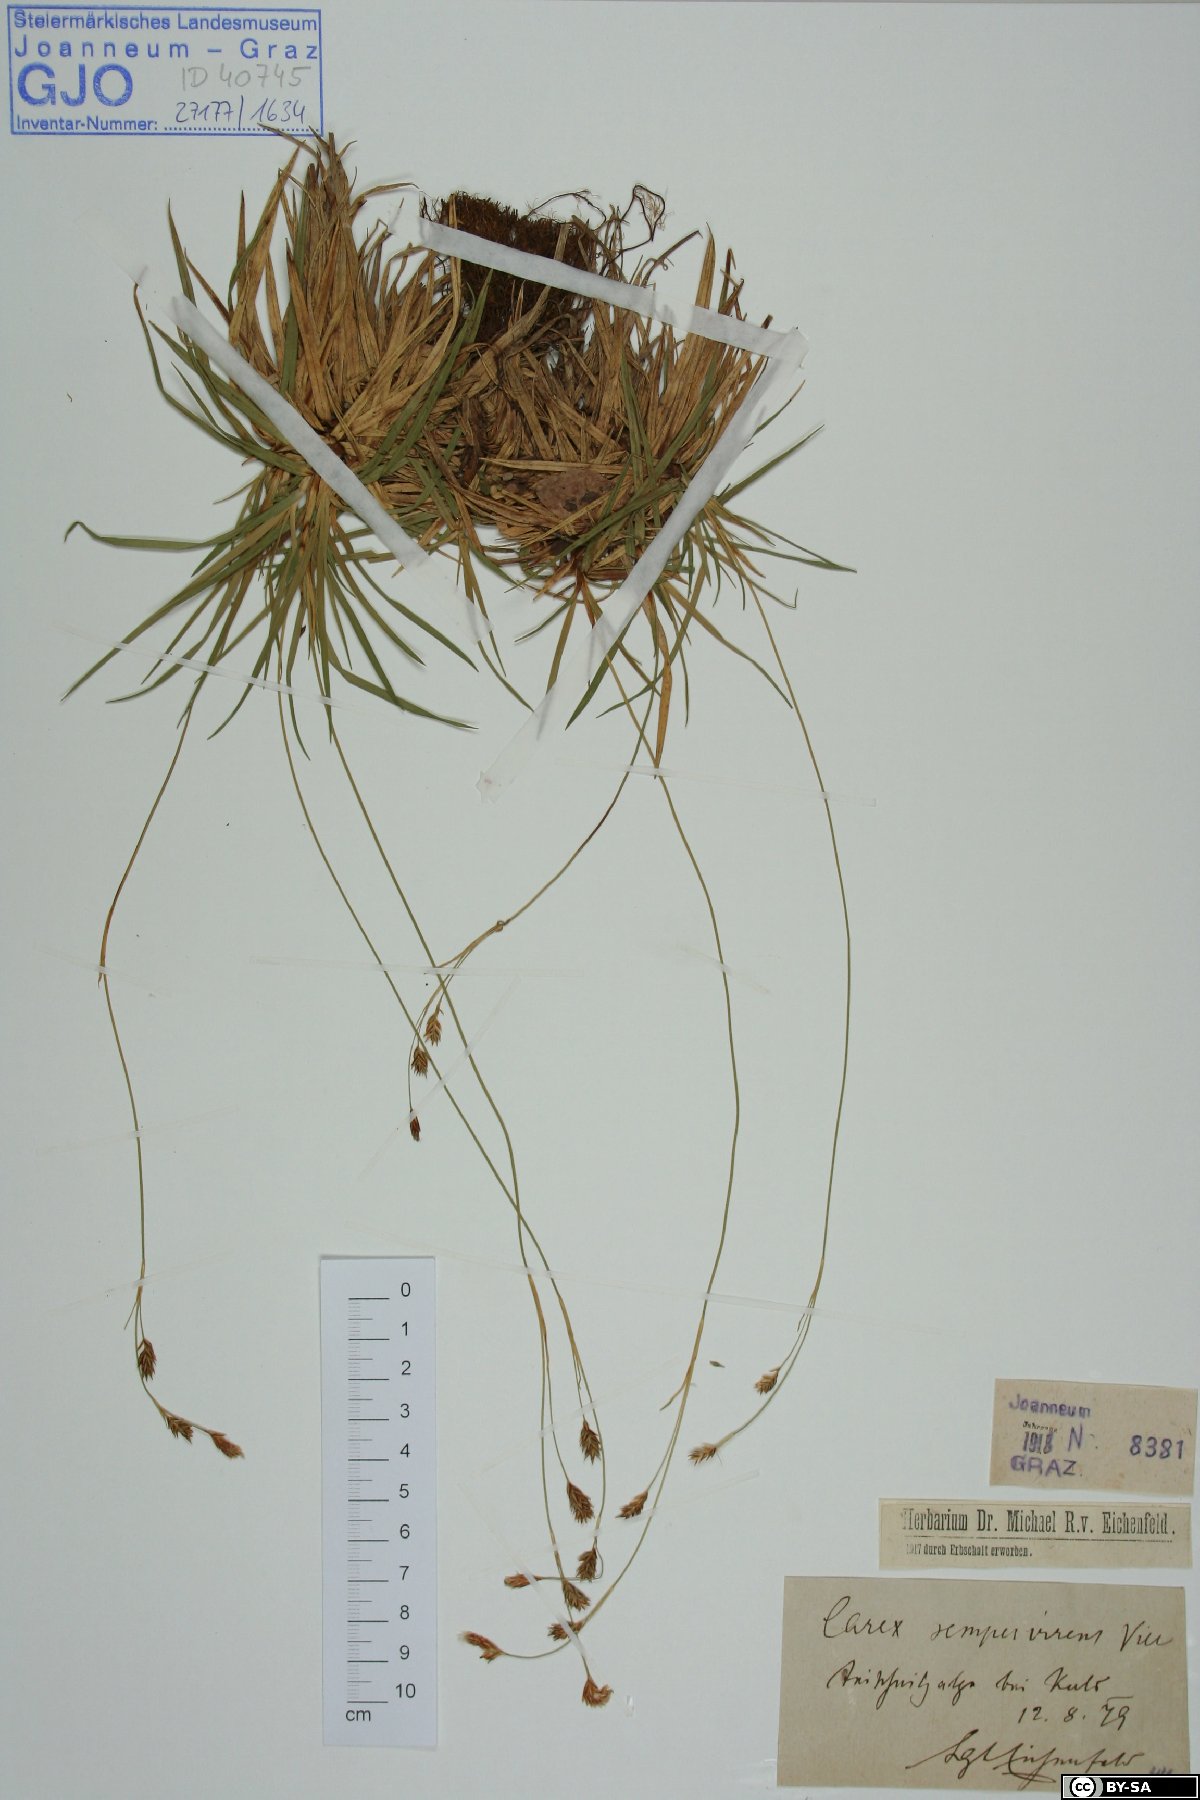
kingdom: Plantae
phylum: Tracheophyta
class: Liliopsida
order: Poales
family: Cyperaceae
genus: Carex
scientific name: Carex sempervirens
